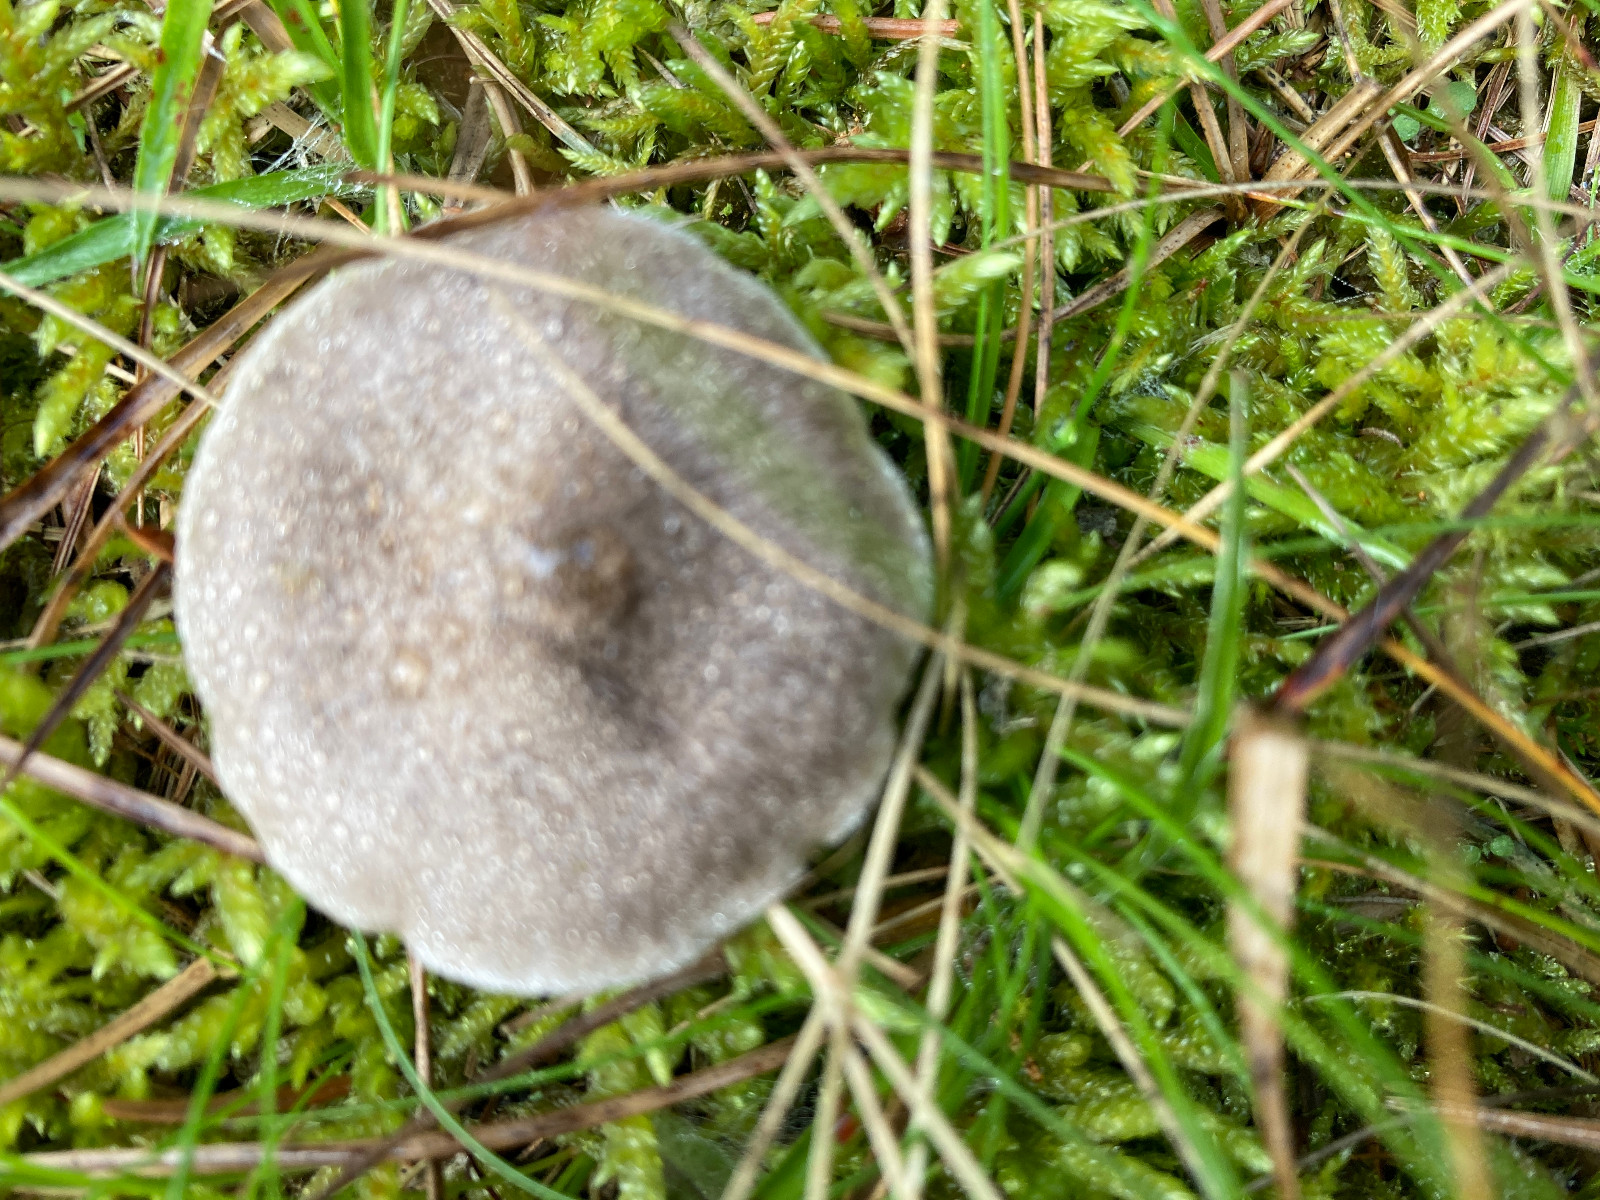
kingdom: Fungi
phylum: Basidiomycota
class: Agaricomycetes
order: Agaricales
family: Tricholomataceae
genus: Tricholoma
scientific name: Tricholoma argyraceum
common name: slør-ridderhat
